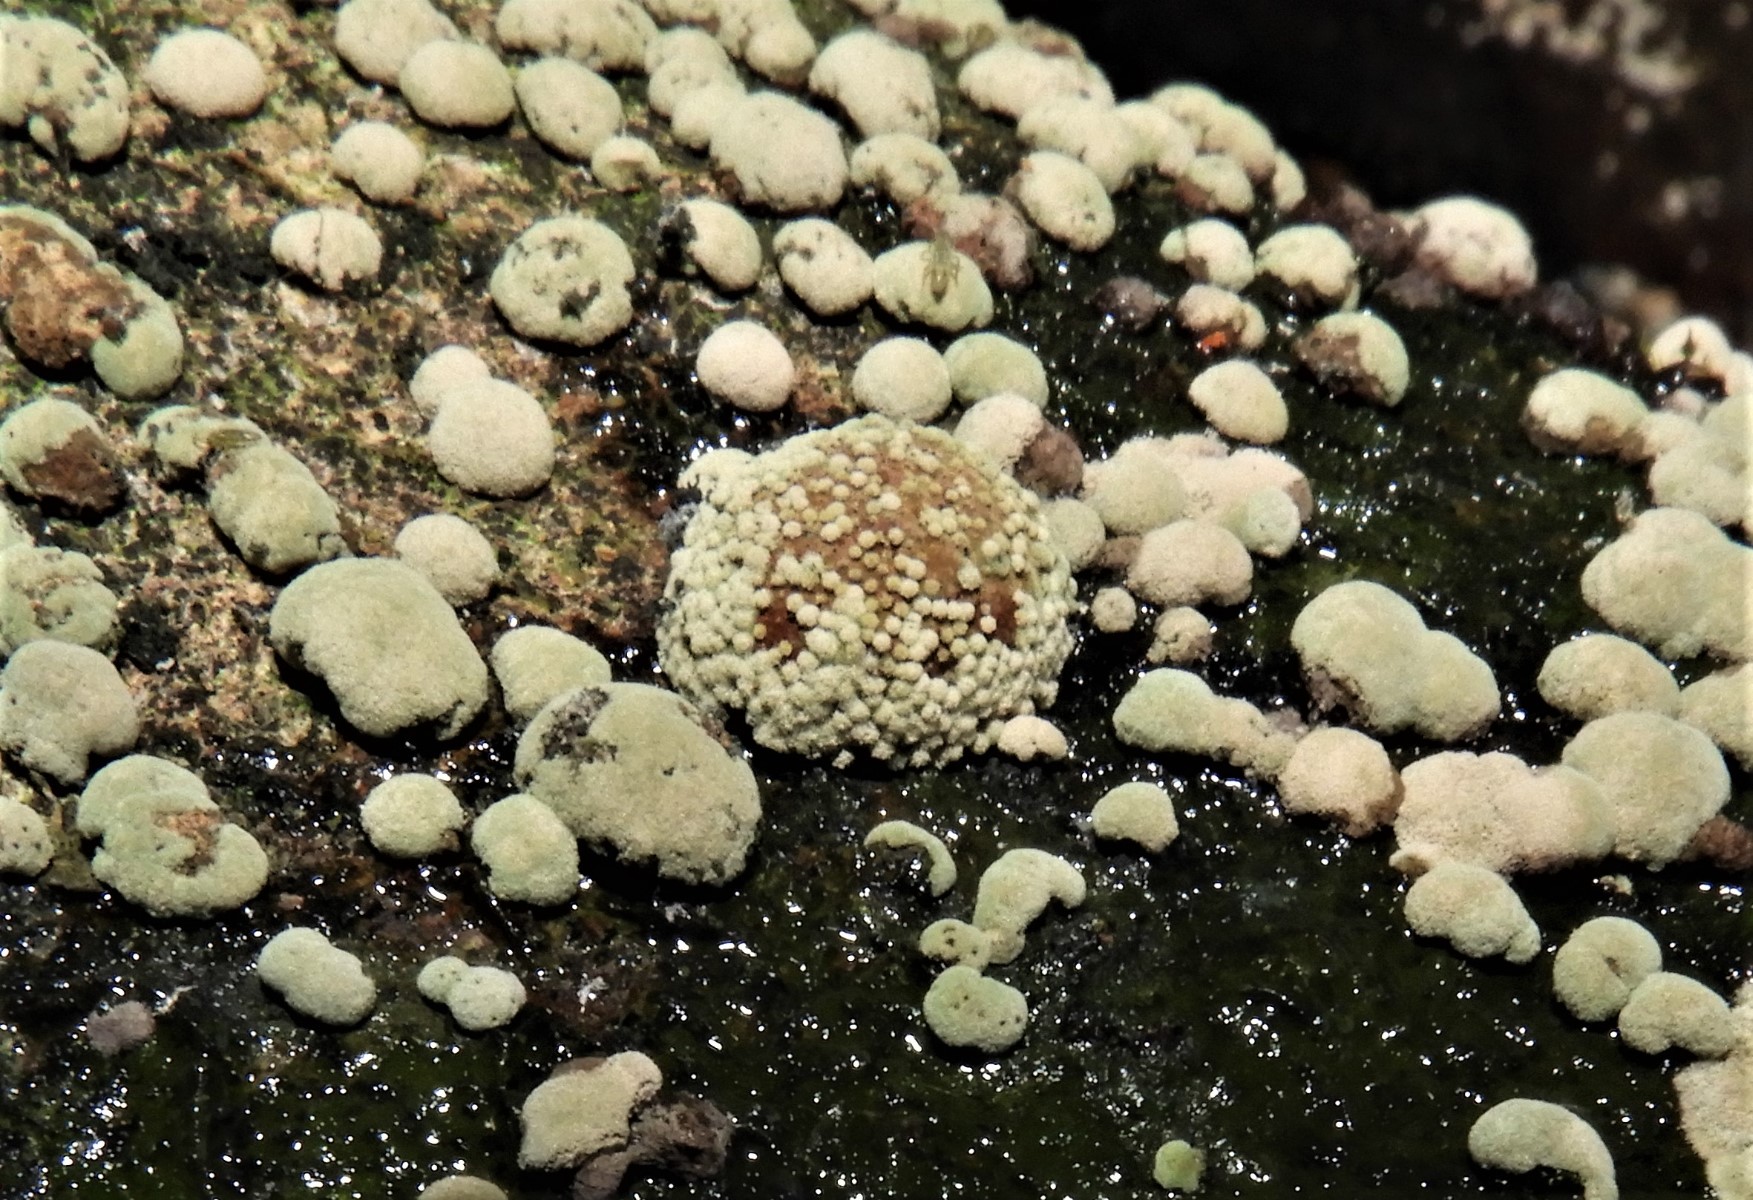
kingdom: Fungi
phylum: Ascomycota
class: Sordariomycetes
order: Xylariales
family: Hypoxylaceae
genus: Hypoxylon
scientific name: Hypoxylon fragiforme
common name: kuljordbær
